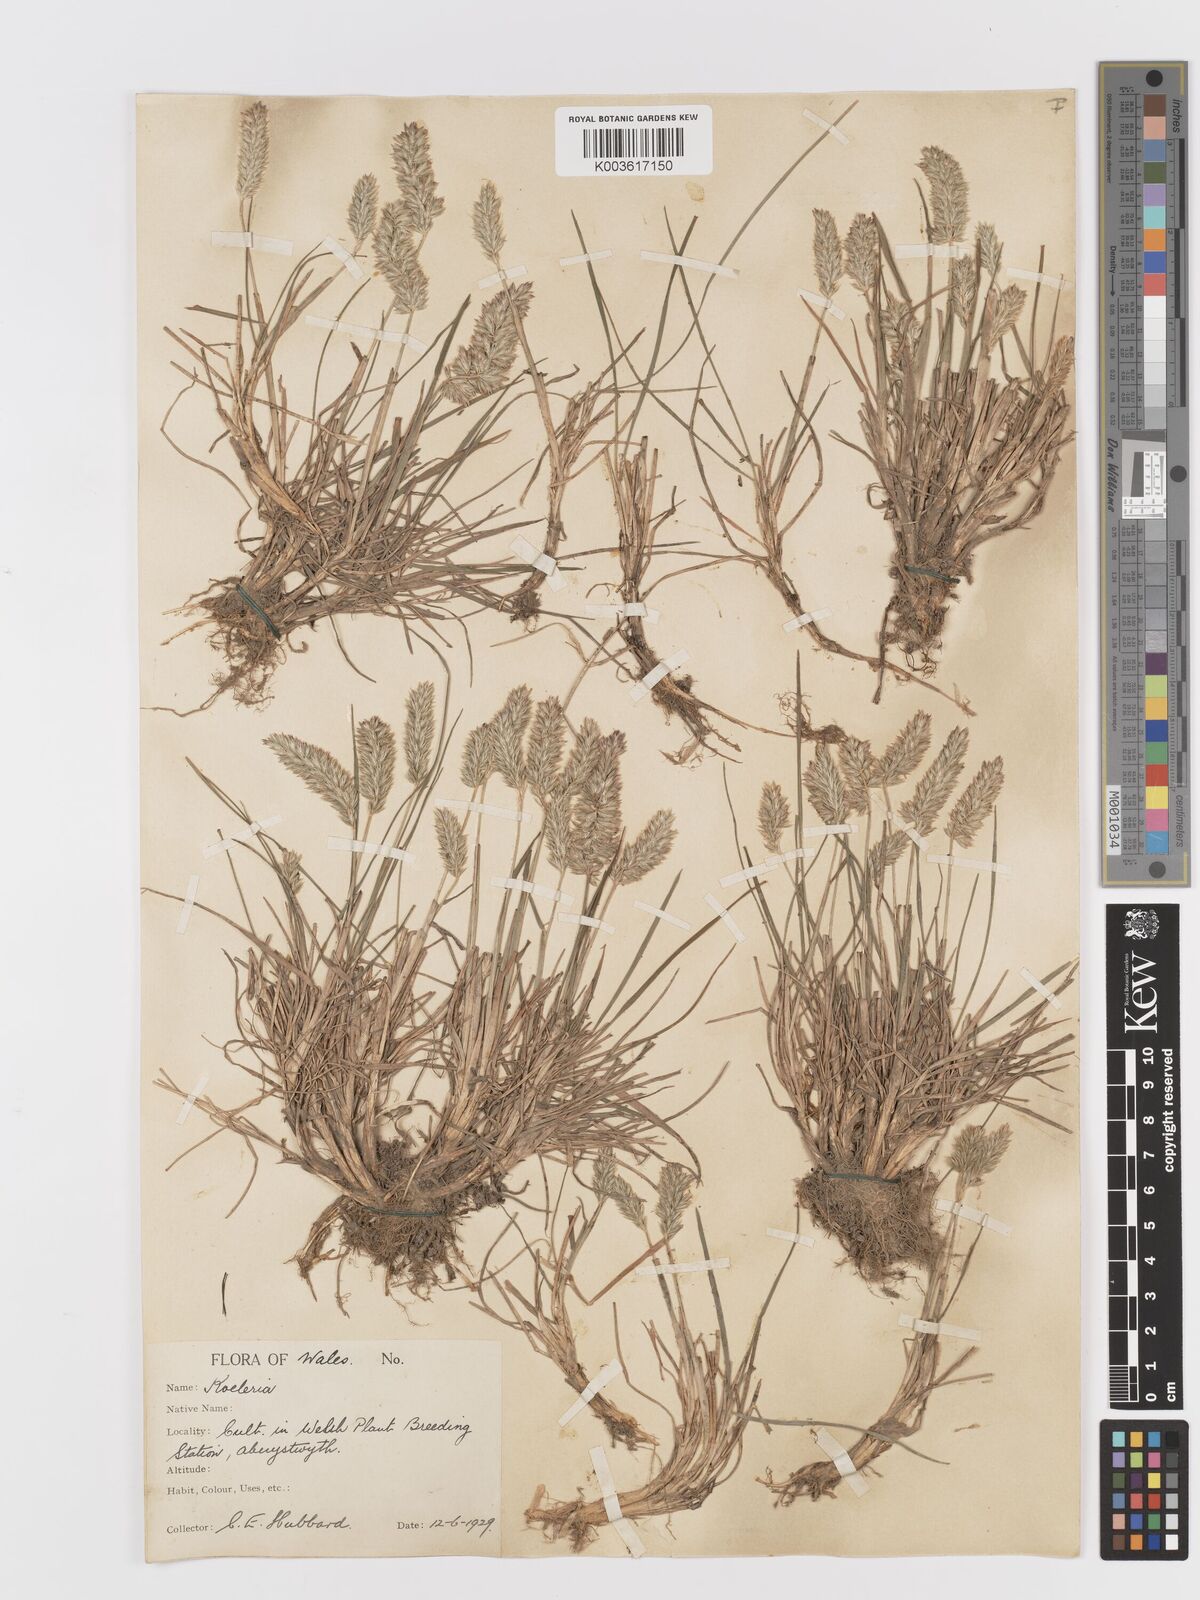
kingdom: Plantae
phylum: Tracheophyta
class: Liliopsida
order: Poales
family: Poaceae
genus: Koeleria
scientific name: Koeleria macrantha
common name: Crested hair-grass
